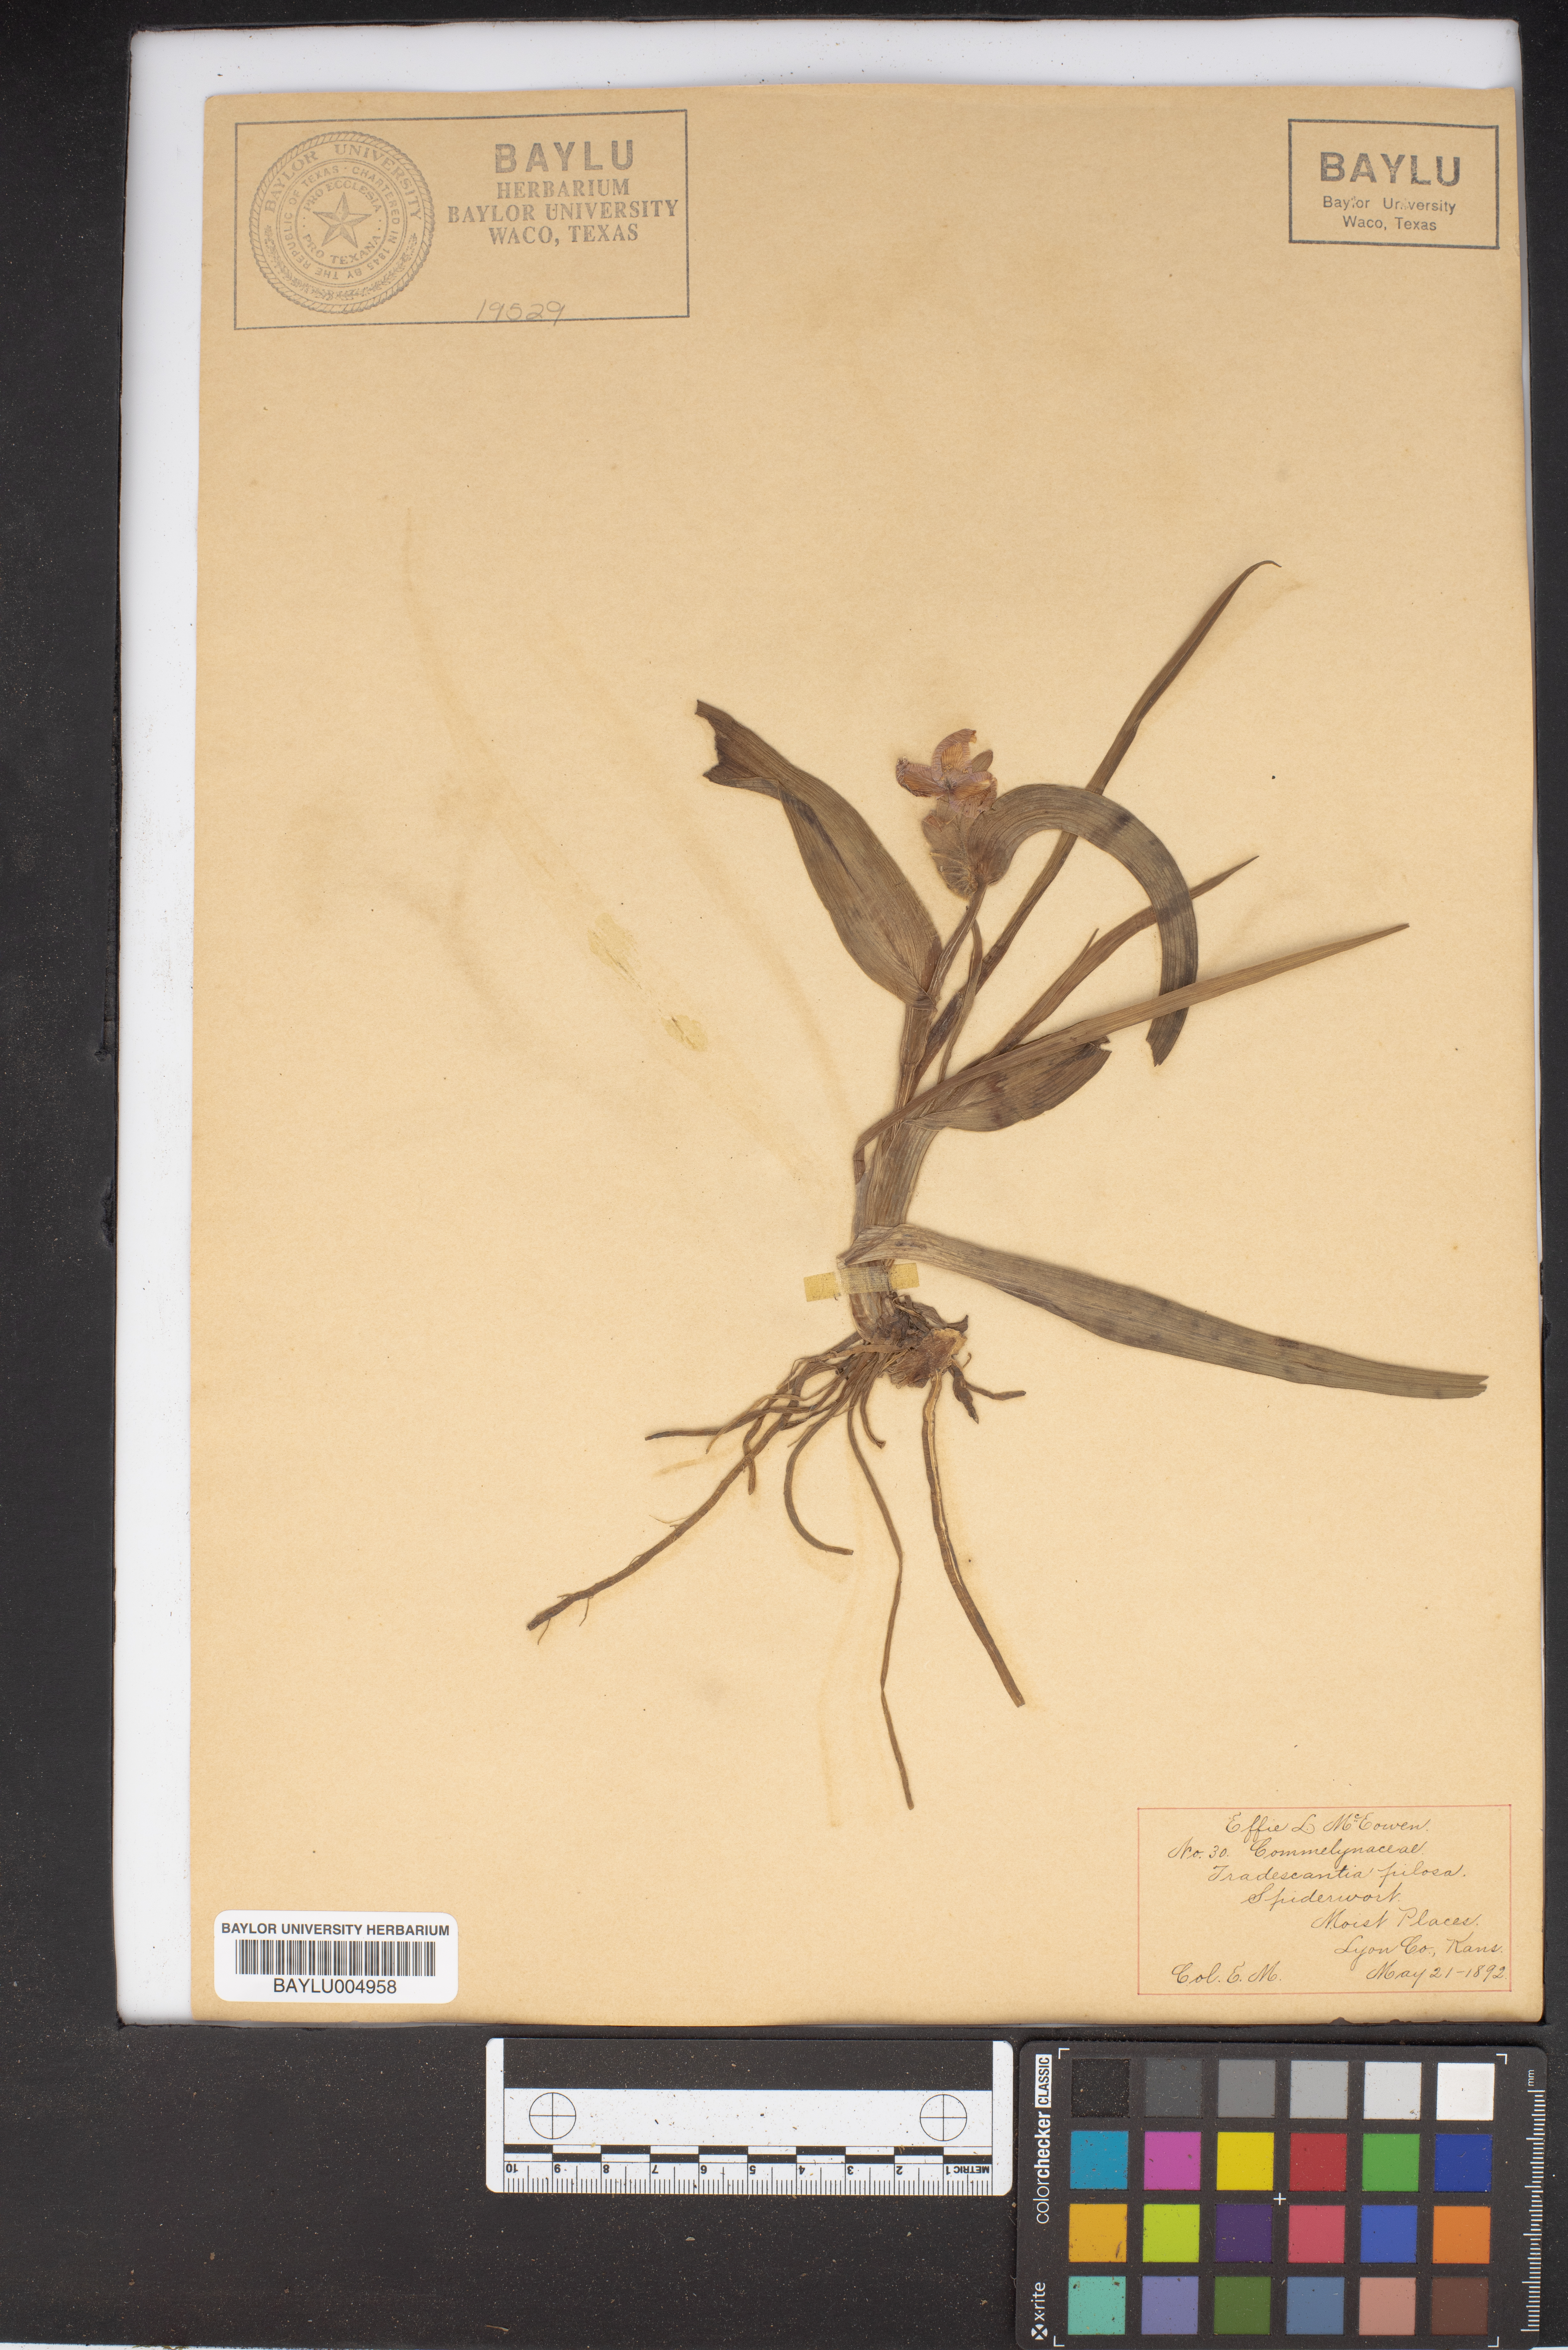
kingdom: Plantae
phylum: Tracheophyta
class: Liliopsida
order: Commelinales
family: Commelinaceae
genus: Tradescantia
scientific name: Tradescantia
